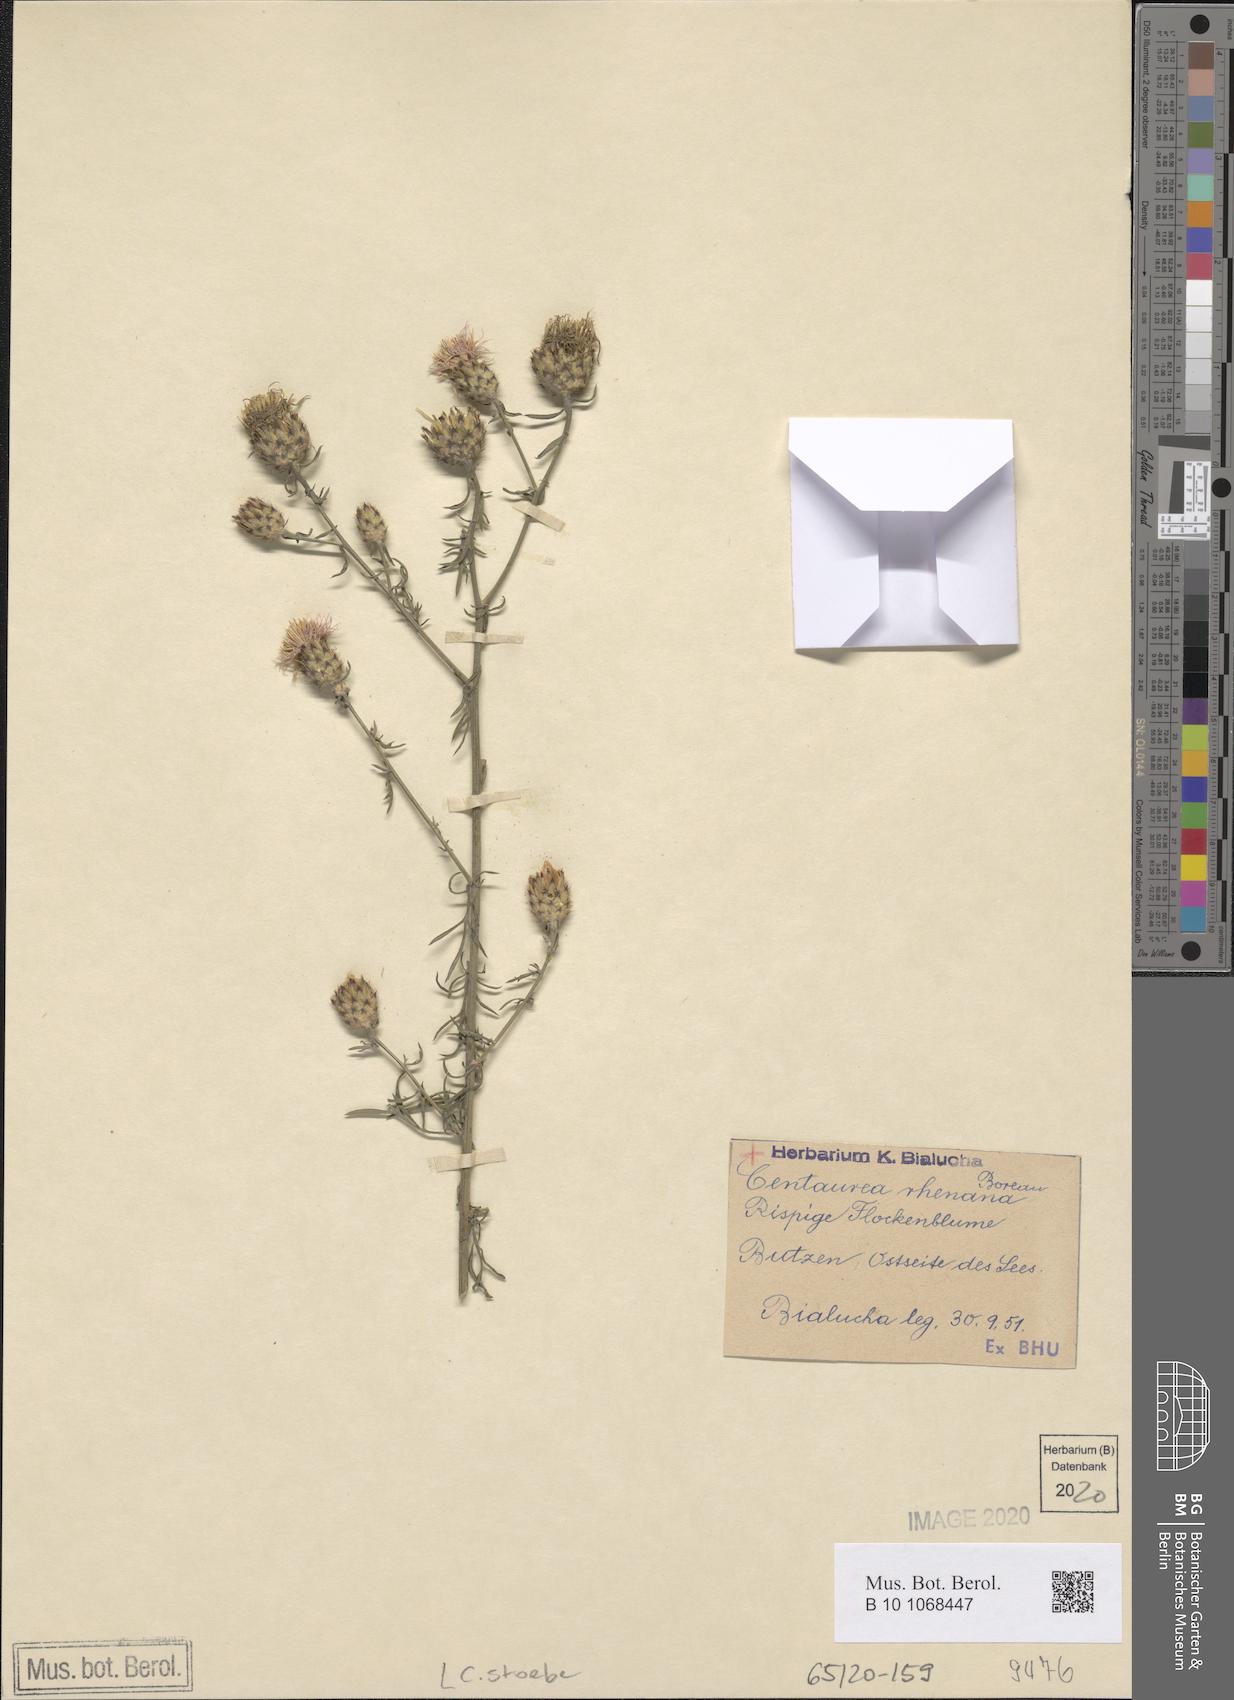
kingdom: Plantae
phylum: Tracheophyta
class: Magnoliopsida
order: Asterales
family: Asteraceae
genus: Centaurea
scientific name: Centaurea stoebe
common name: Spotted knapweed
